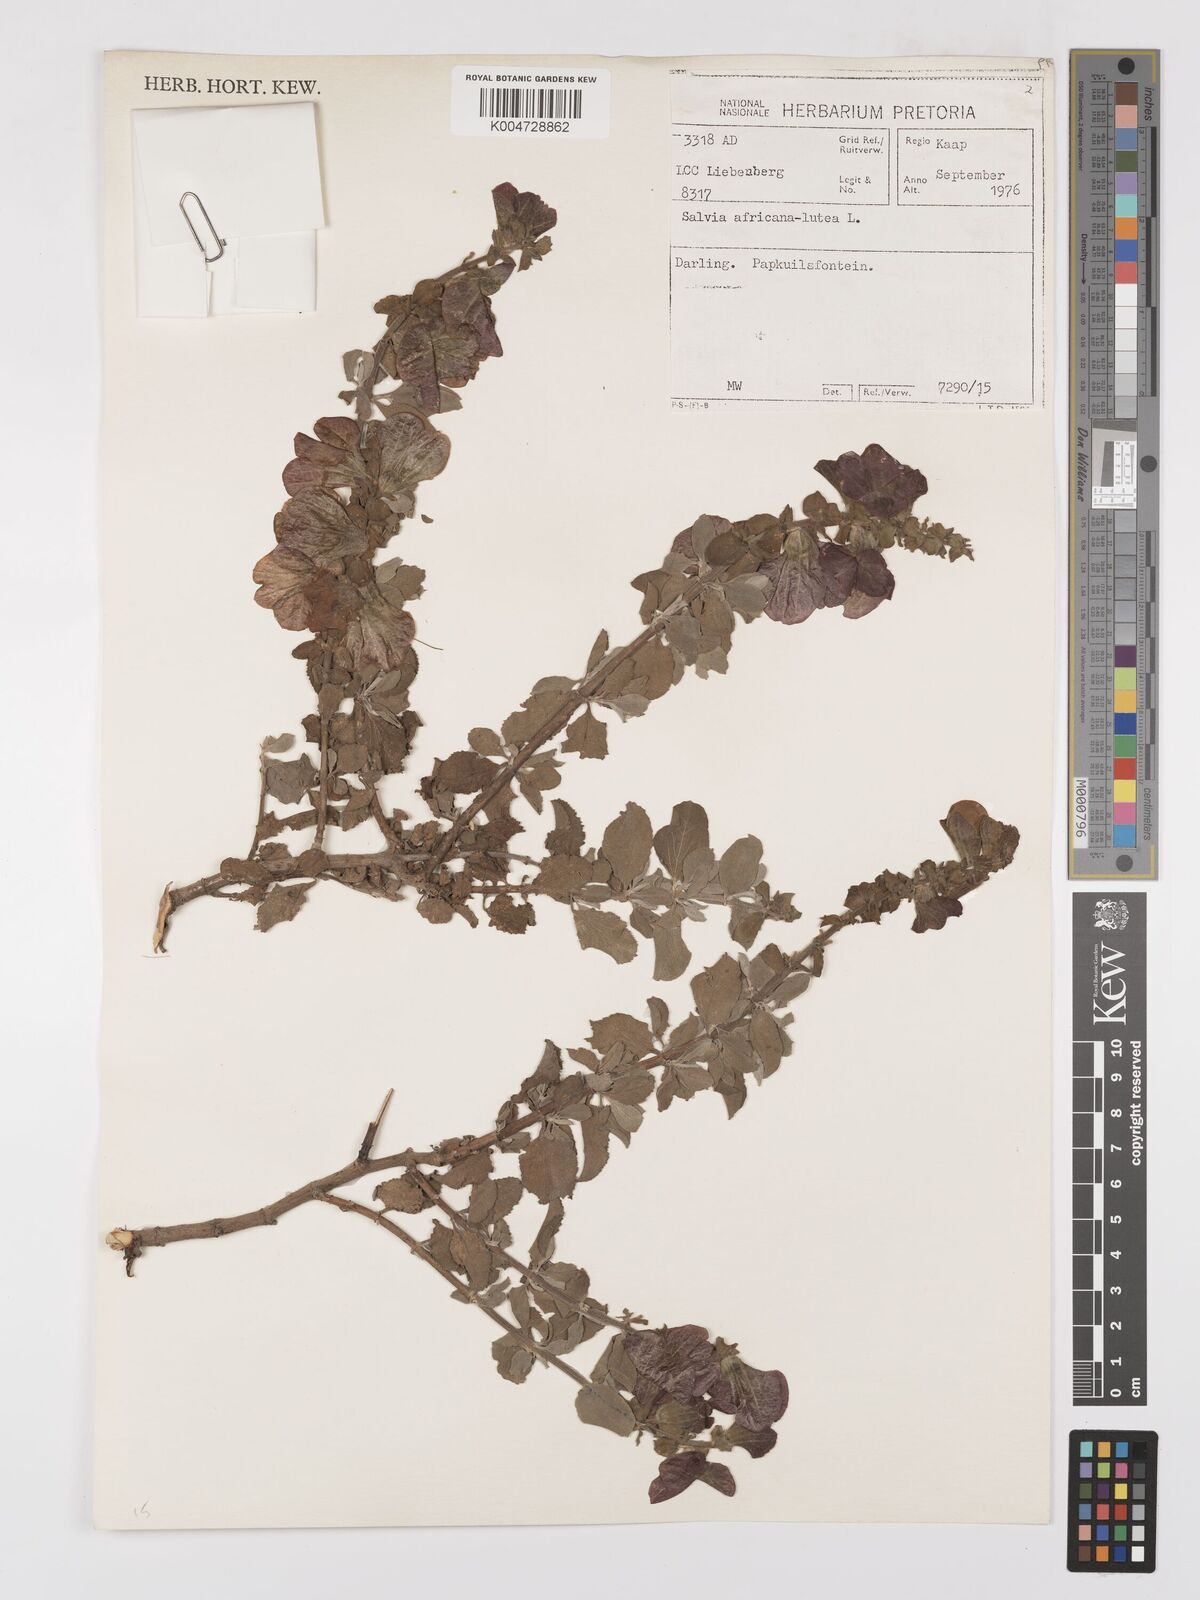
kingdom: Plantae
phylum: Tracheophyta
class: Magnoliopsida
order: Lamiales
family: Lamiaceae
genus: Salvia
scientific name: Salvia aurea
